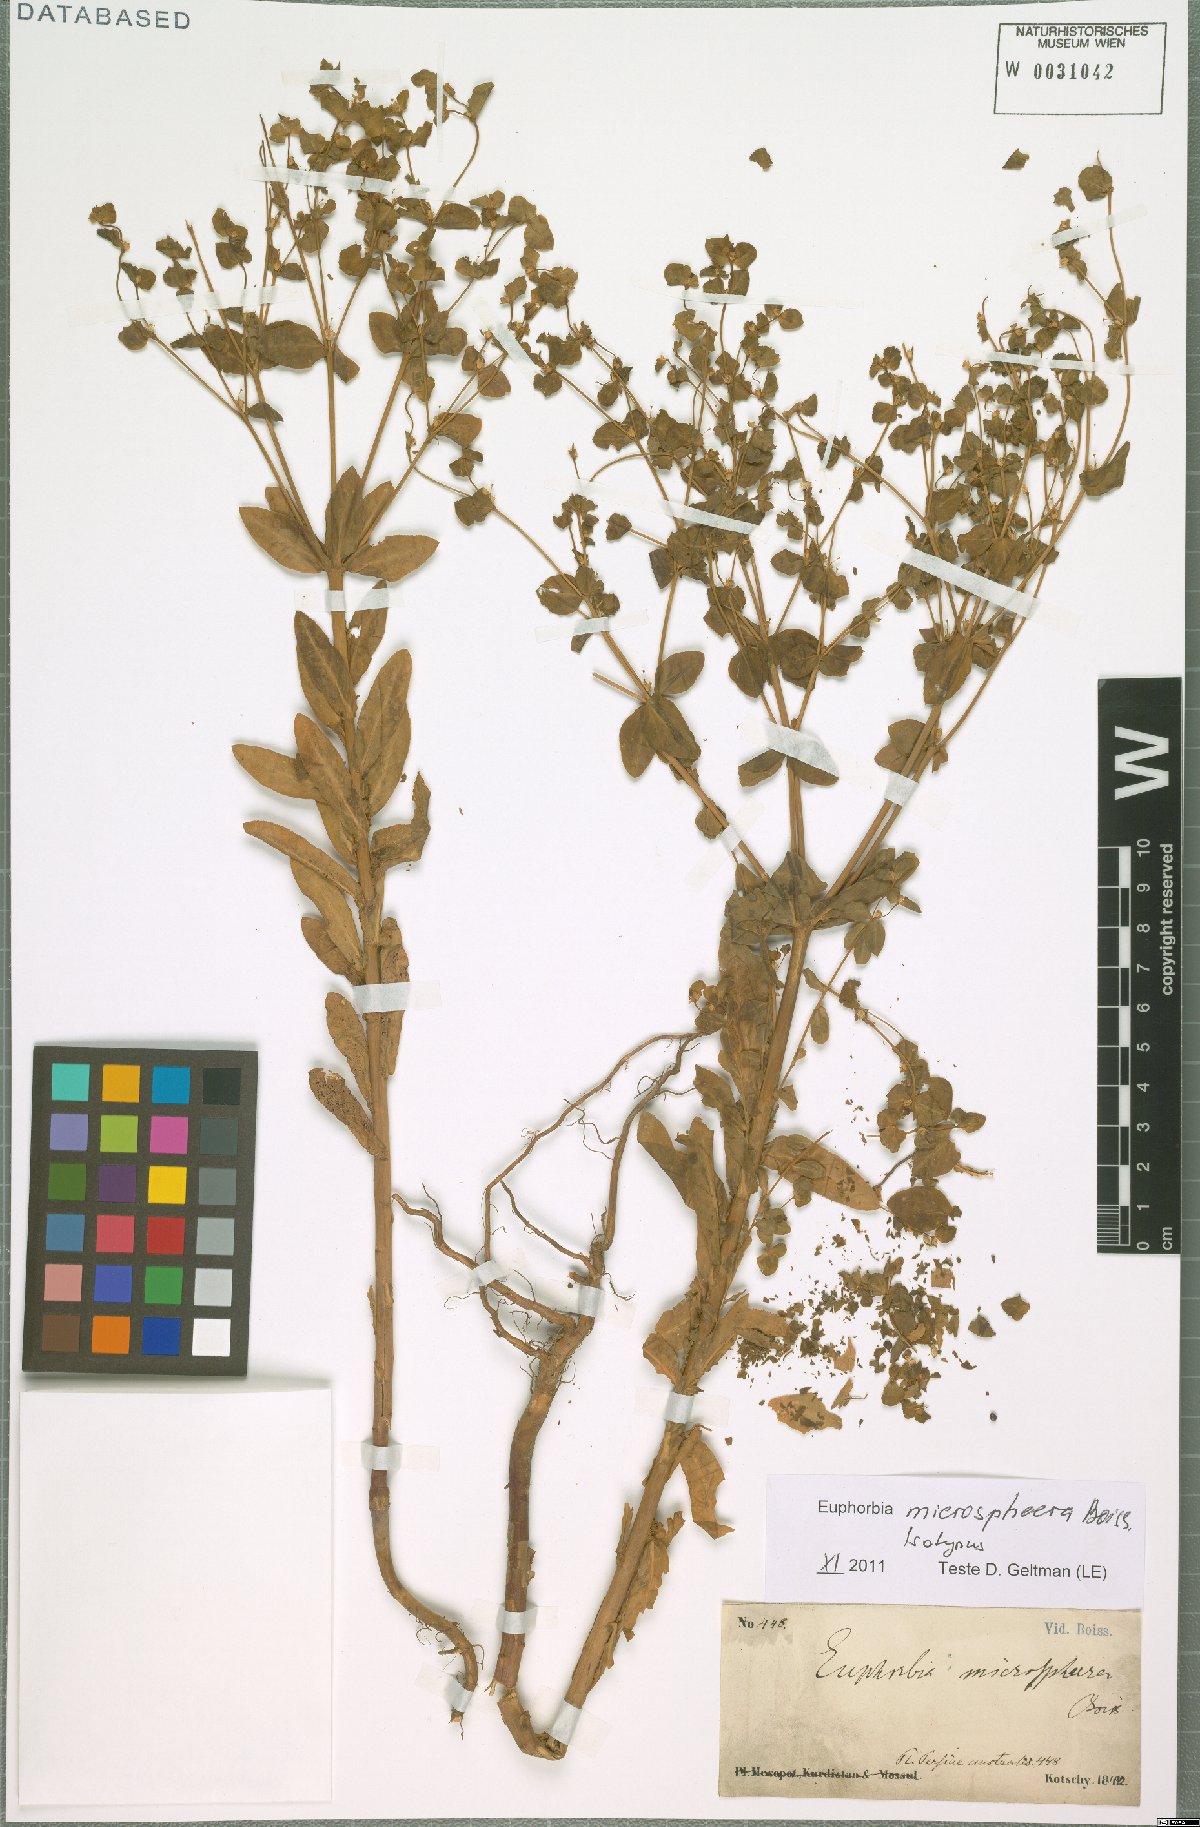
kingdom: Plantae
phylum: Tracheophyta
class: Magnoliopsida
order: Malpighiales
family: Euphorbiaceae
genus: Euphorbia
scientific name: Euphorbia microsphaera
